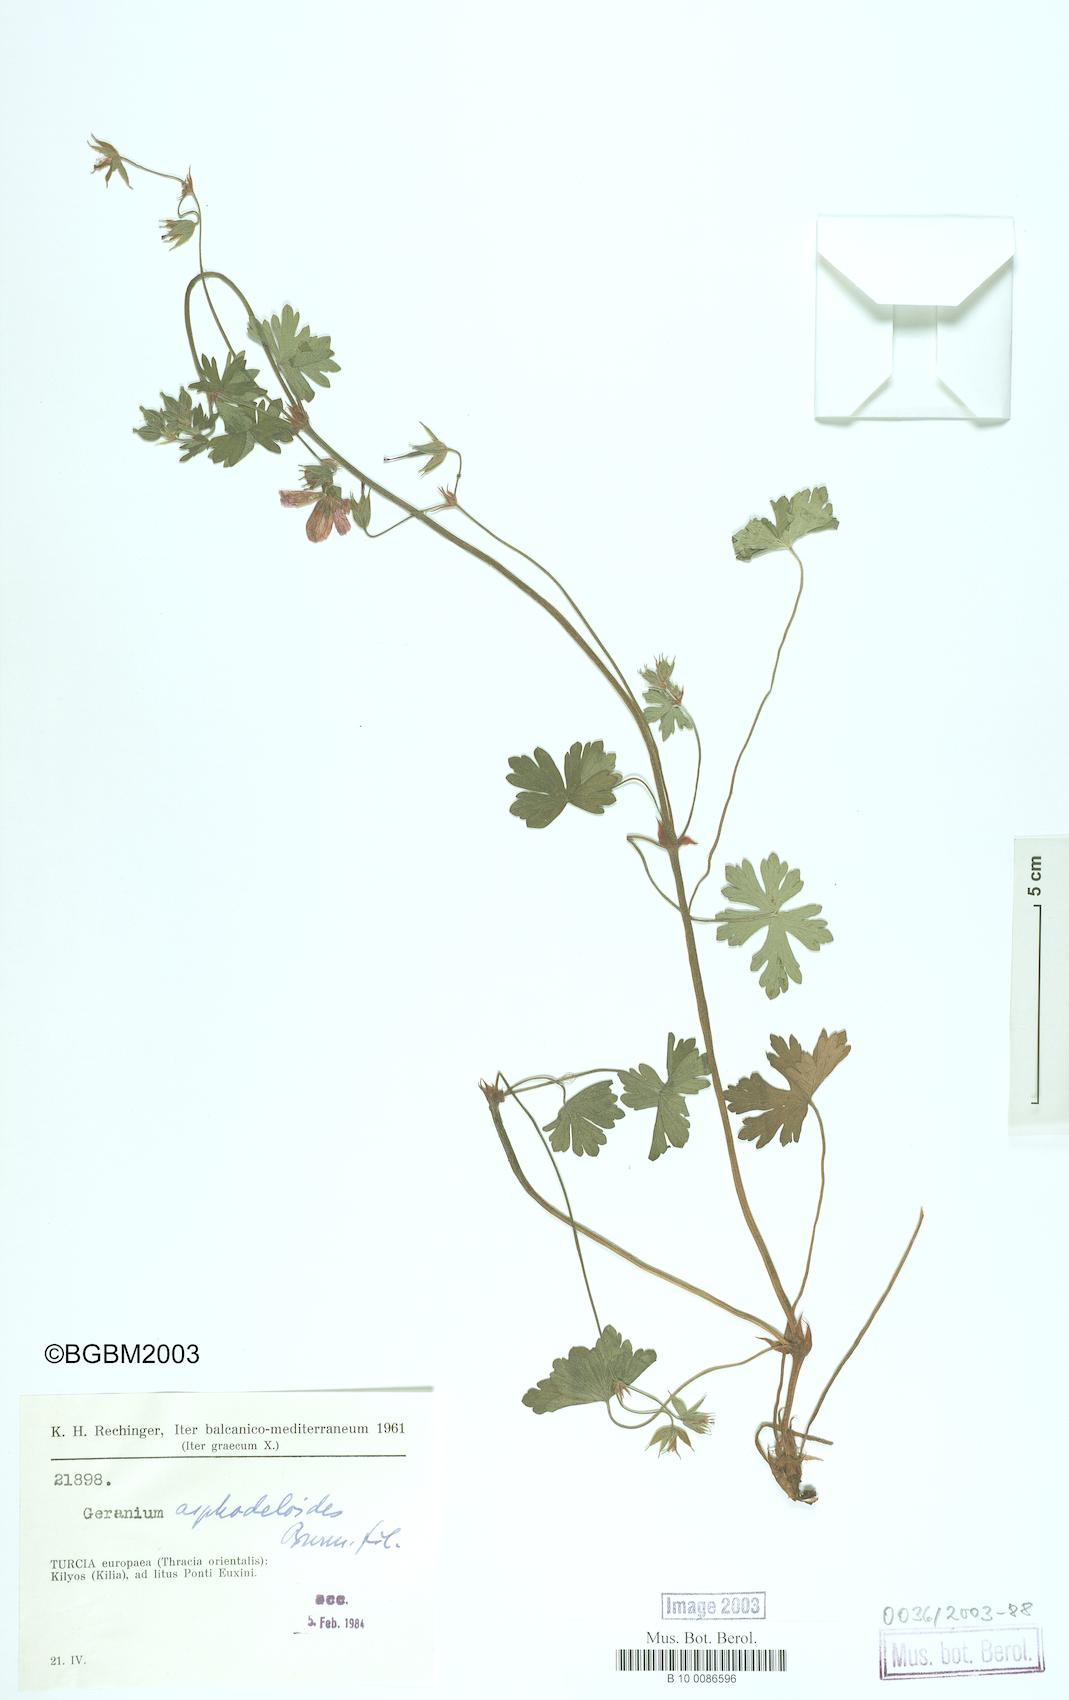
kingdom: Plantae
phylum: Tracheophyta
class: Magnoliopsida
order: Geraniales
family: Geraniaceae
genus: Geranium
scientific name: Geranium asphodeloides
